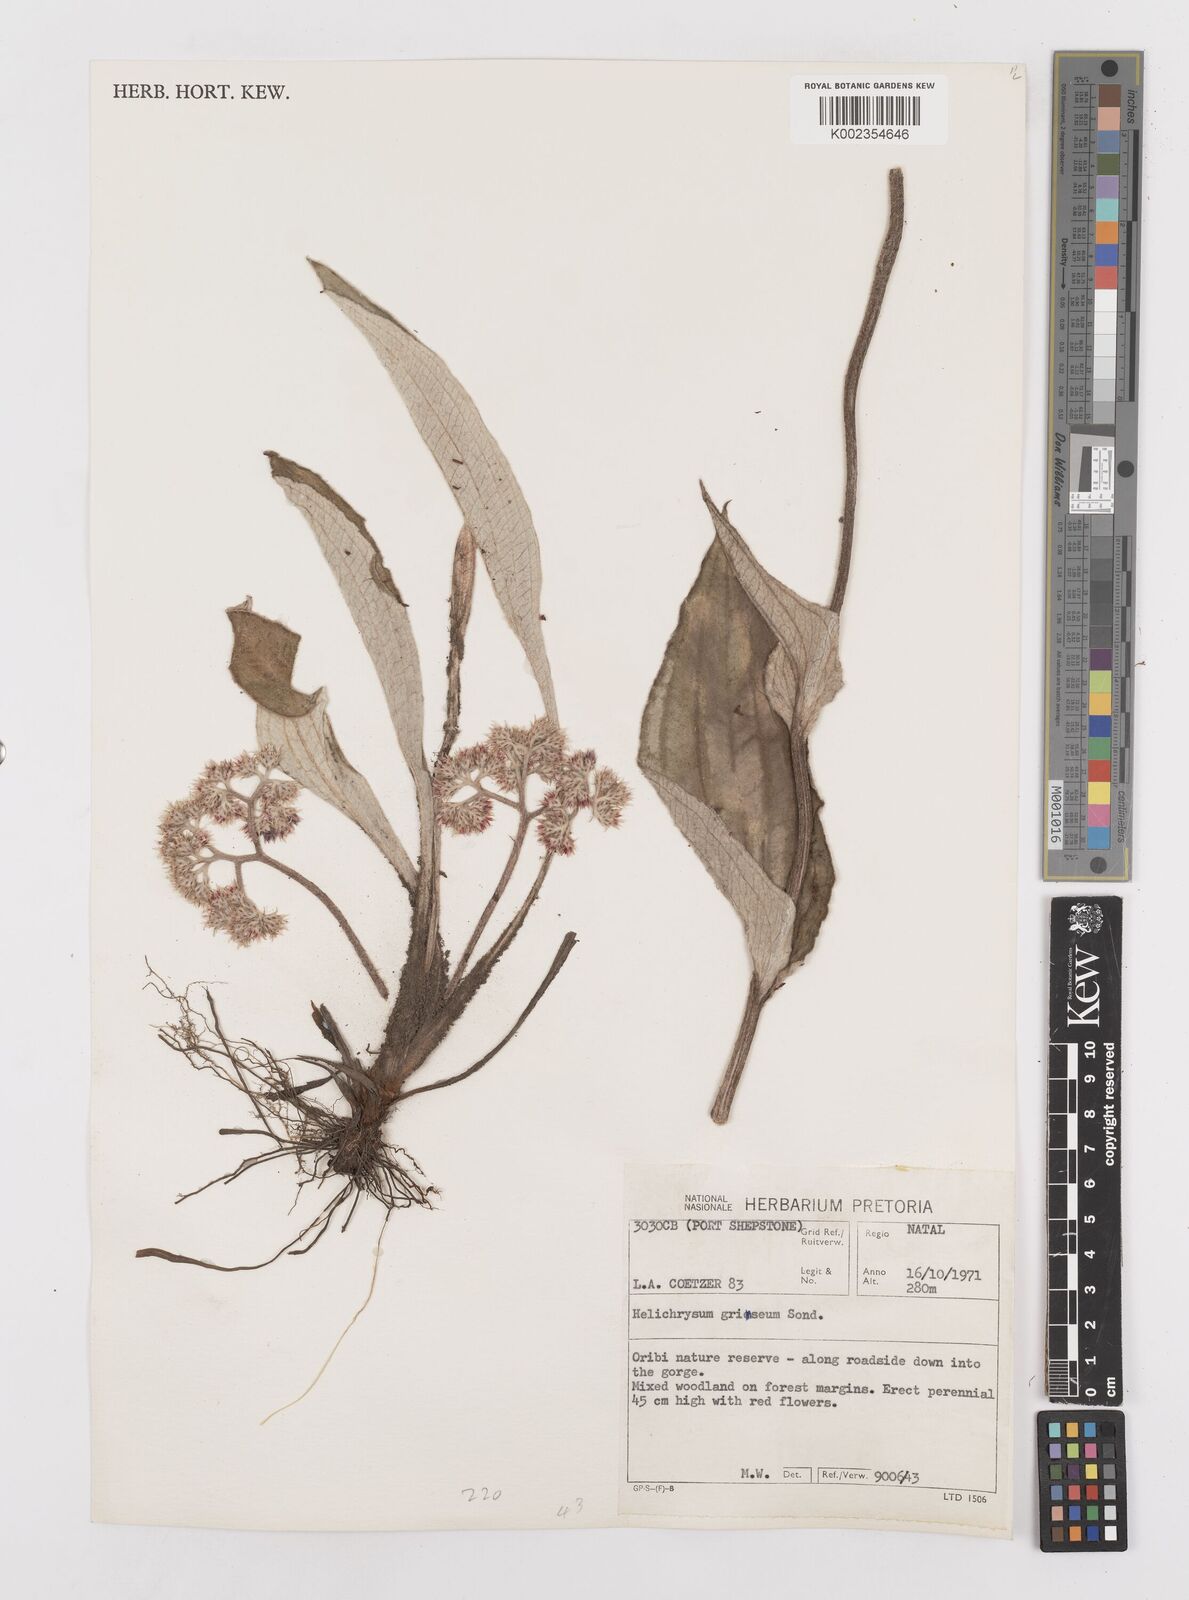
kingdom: Plantae
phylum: Tracheophyta
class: Magnoliopsida
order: Asterales
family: Asteraceae
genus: Helichrysum
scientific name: Helichrysum griseum
